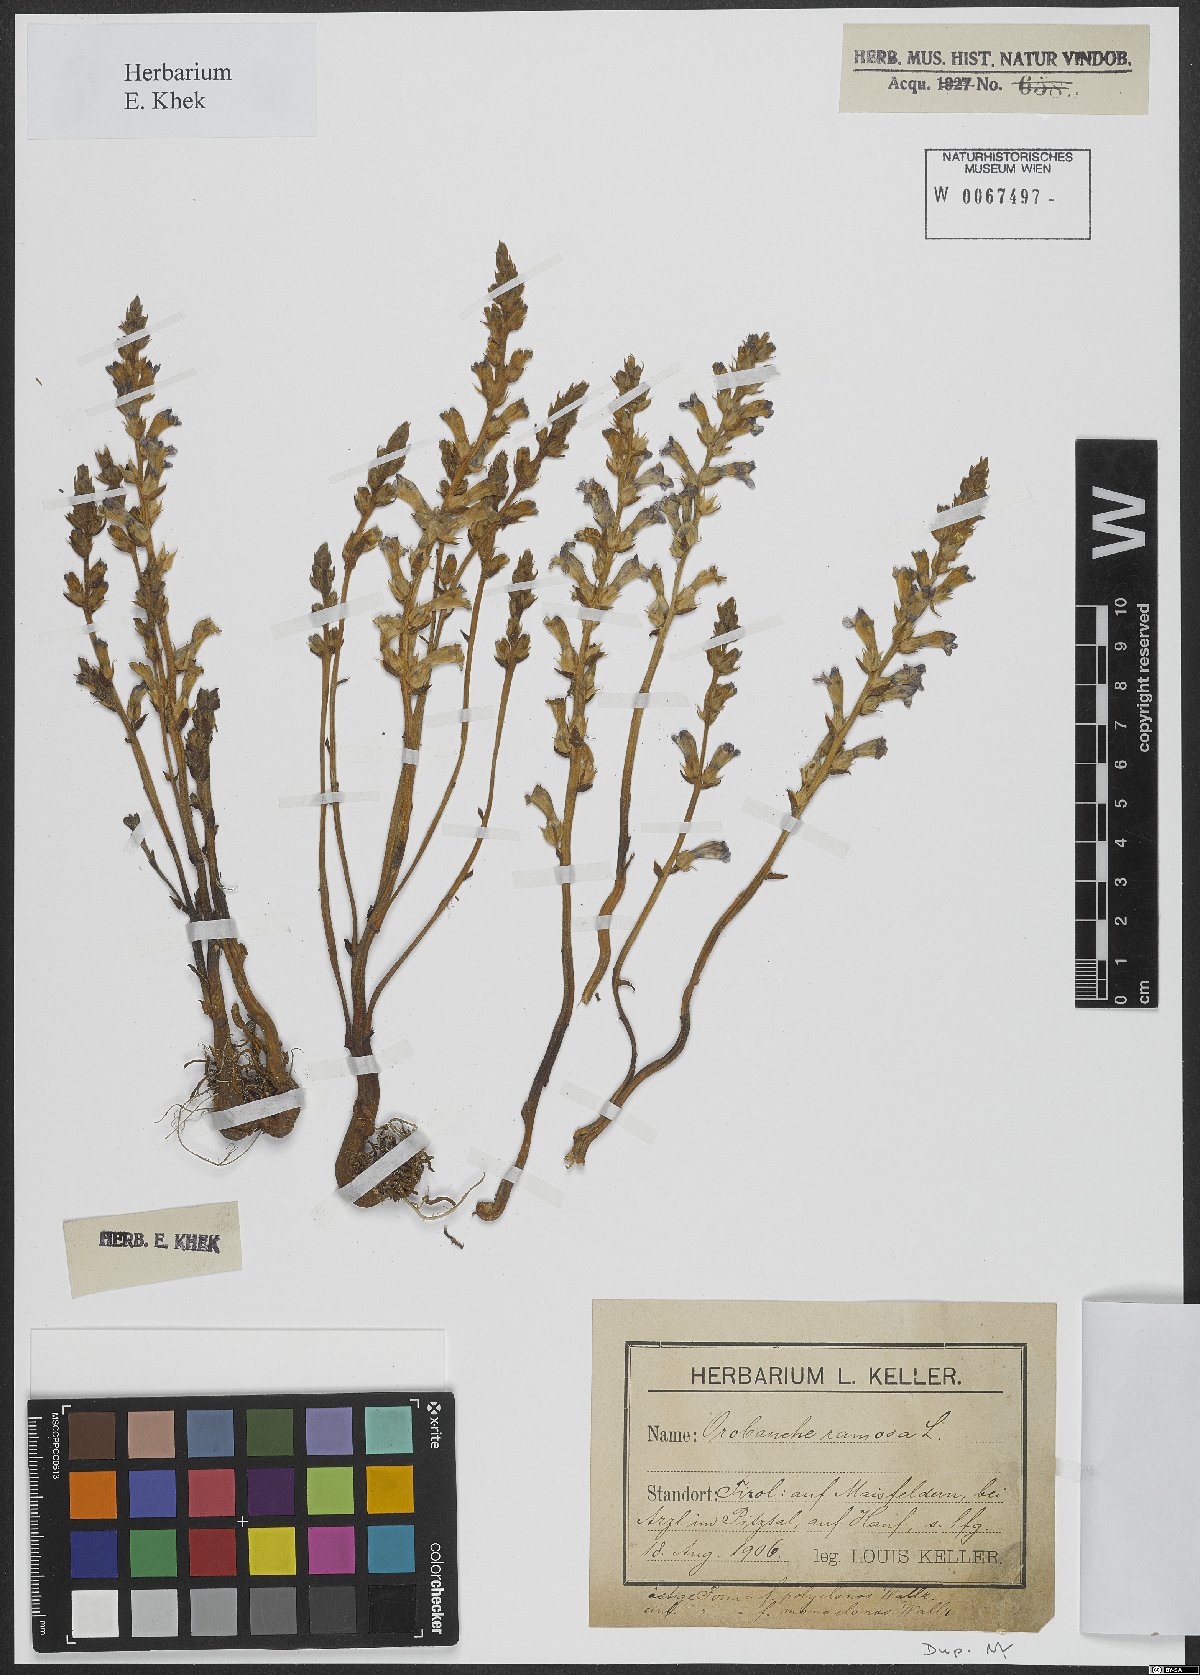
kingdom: Plantae
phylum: Tracheophyta
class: Magnoliopsida
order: Lamiales
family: Orobanchaceae
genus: Phelipanche
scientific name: Phelipanche ramosa
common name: Branched broomrape
